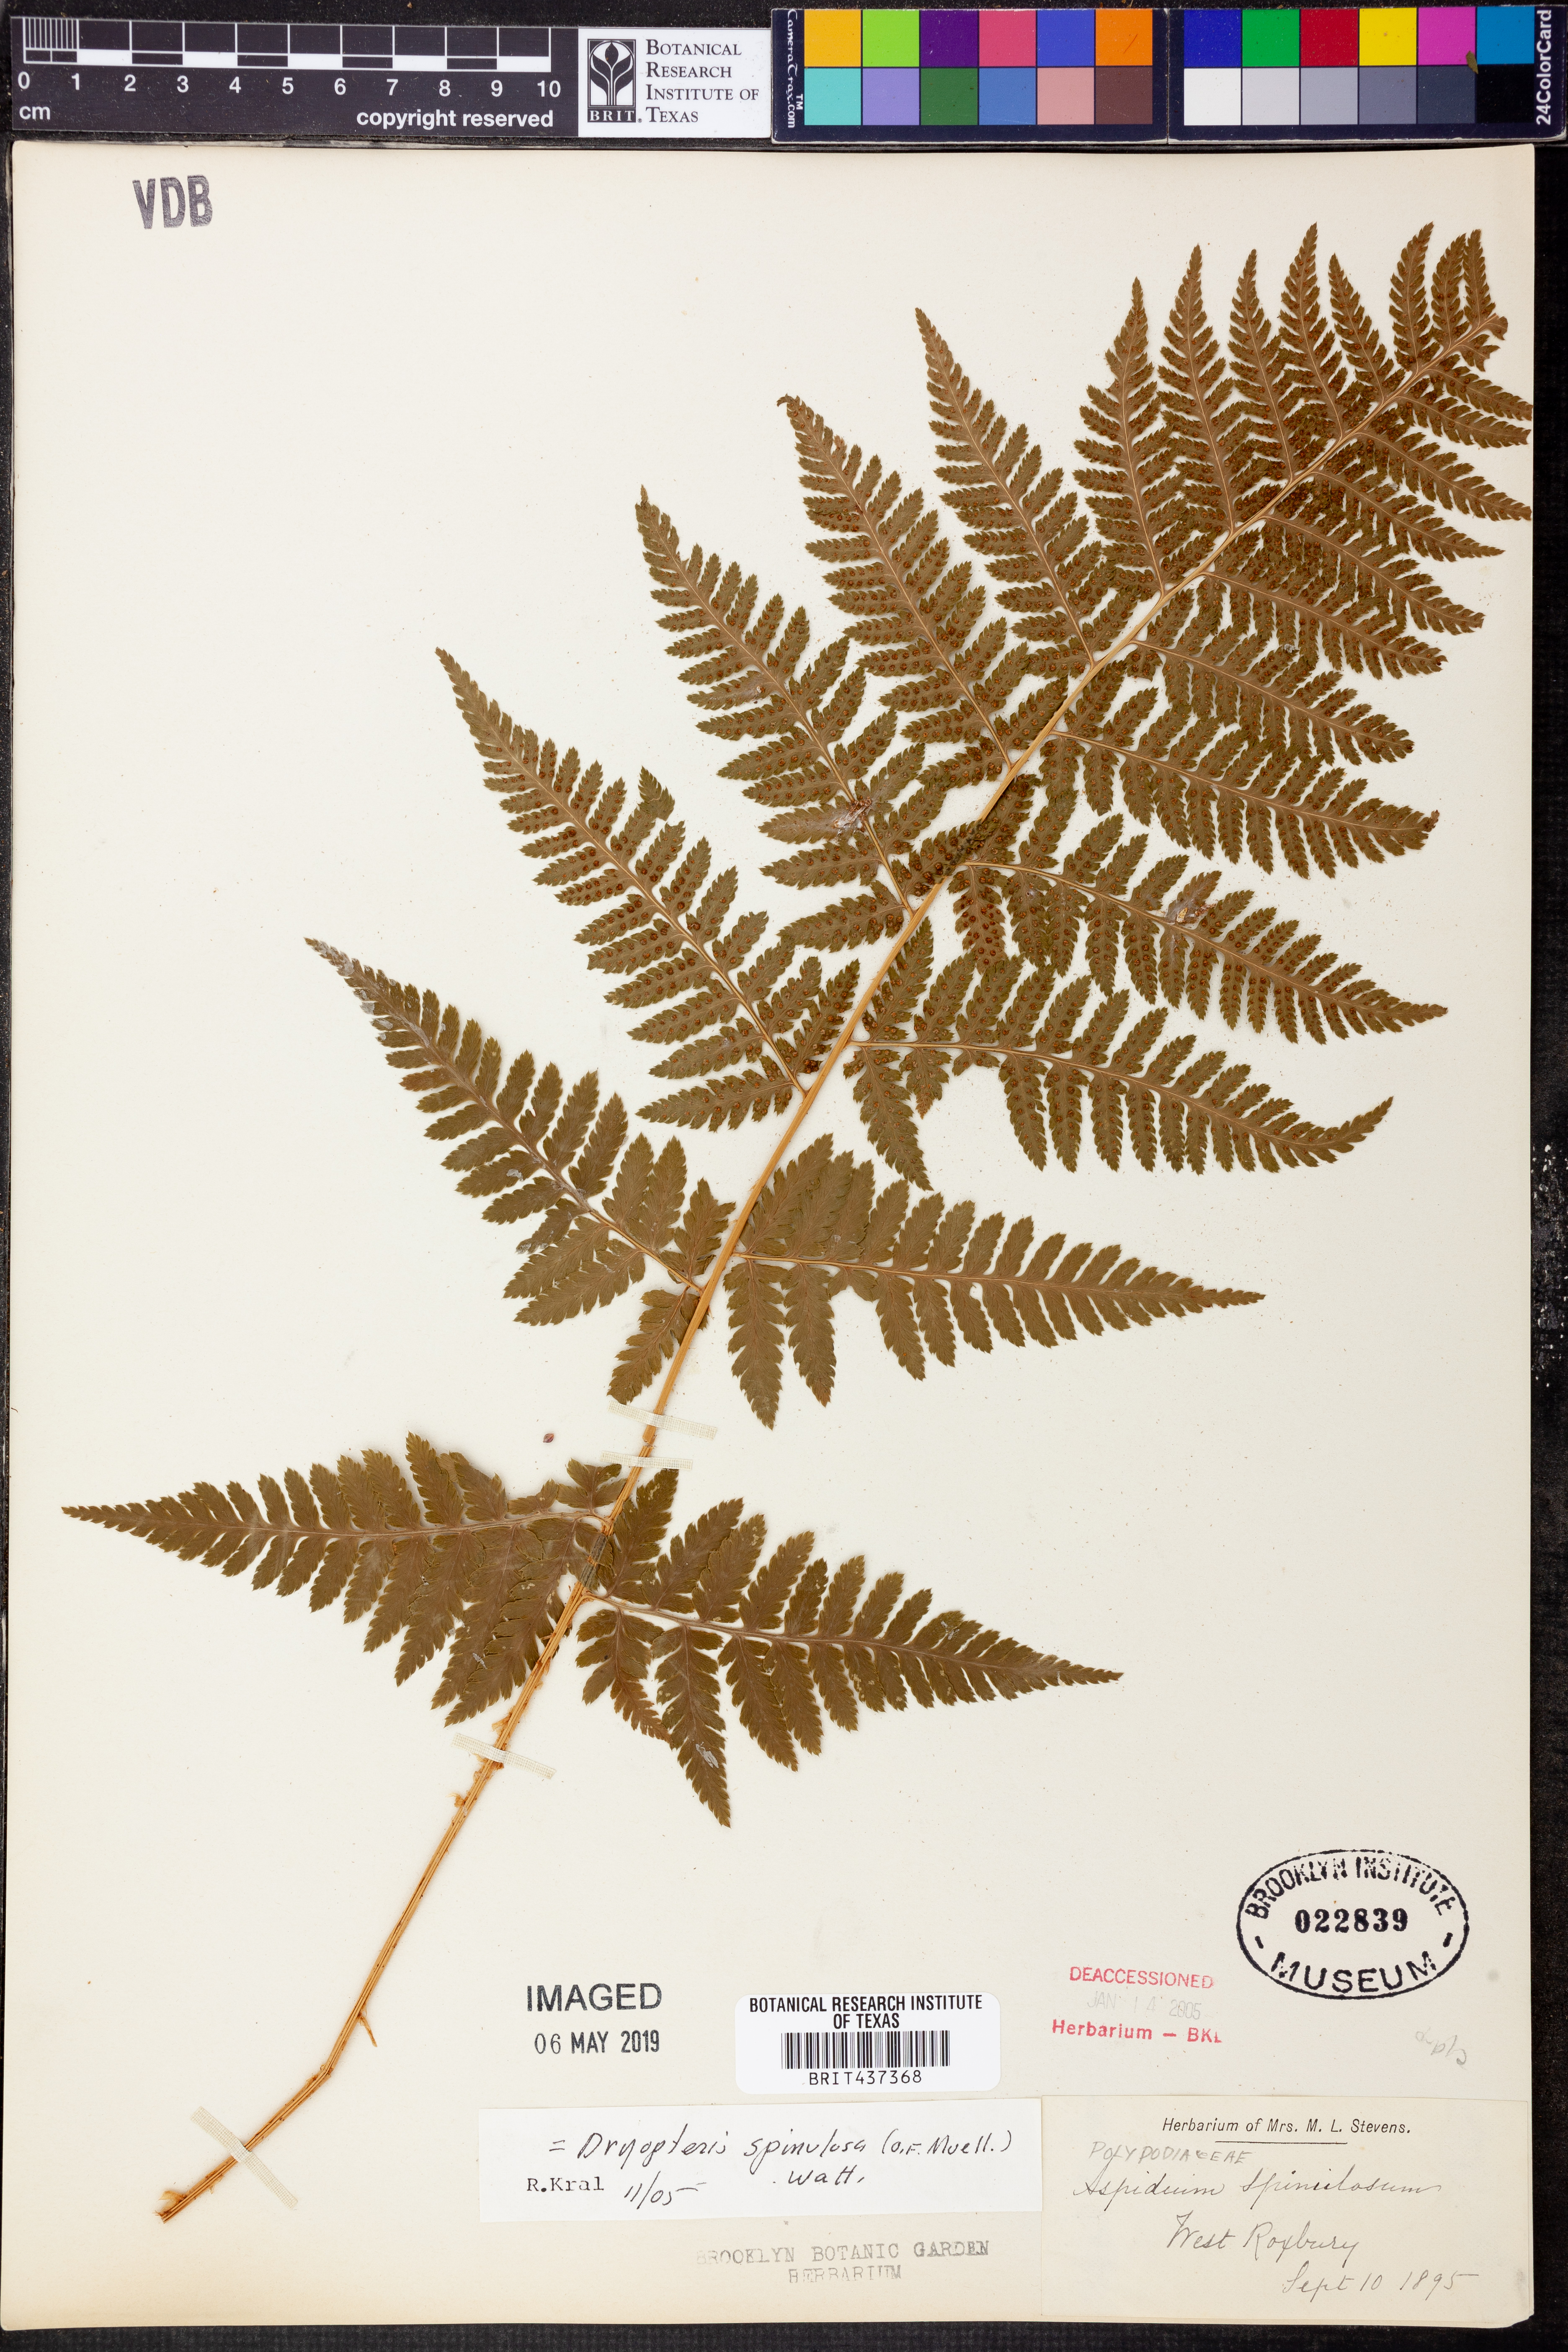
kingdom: Plantae
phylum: Tracheophyta
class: Polypodiopsida
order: Polypodiales
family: Dryopteridaceae
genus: Dryopteris
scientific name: Dryopteris carthusiana
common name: Narrow buckler-fern
